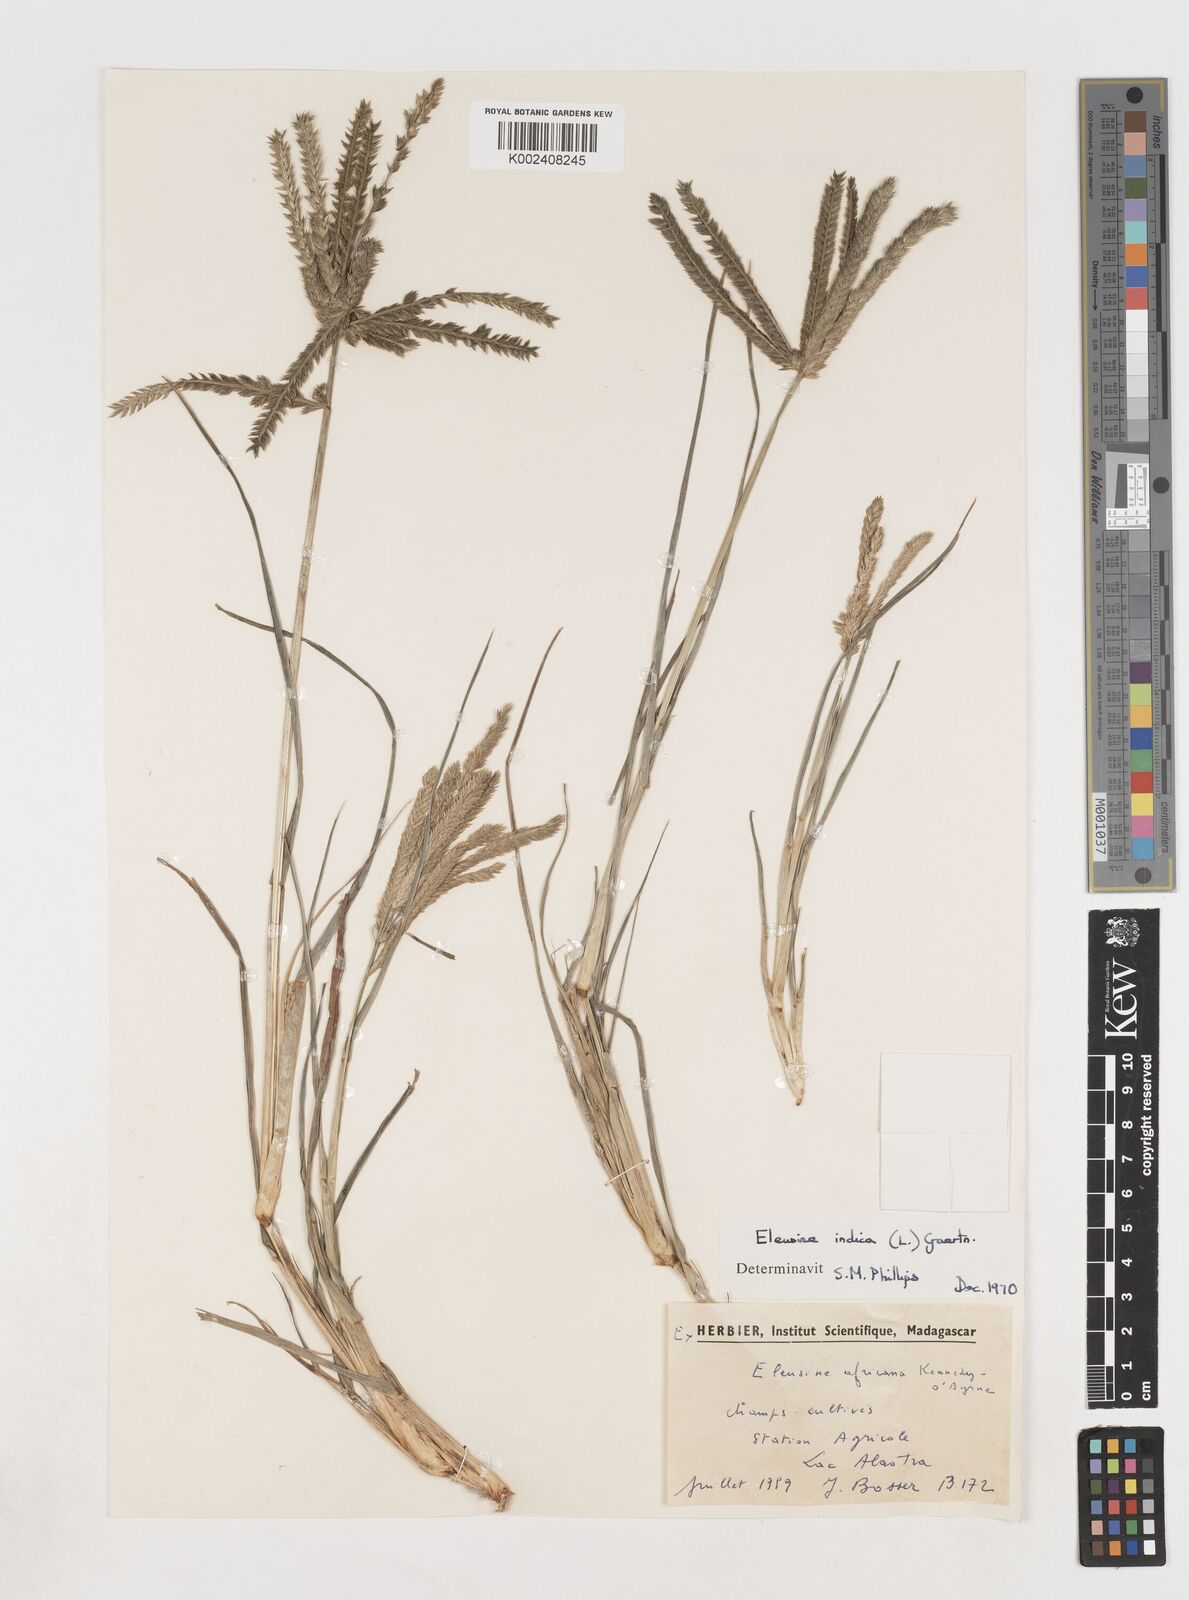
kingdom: Plantae
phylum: Tracheophyta
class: Liliopsida
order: Poales
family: Poaceae
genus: Eleusine
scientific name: Eleusine indica
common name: Yard-grass
